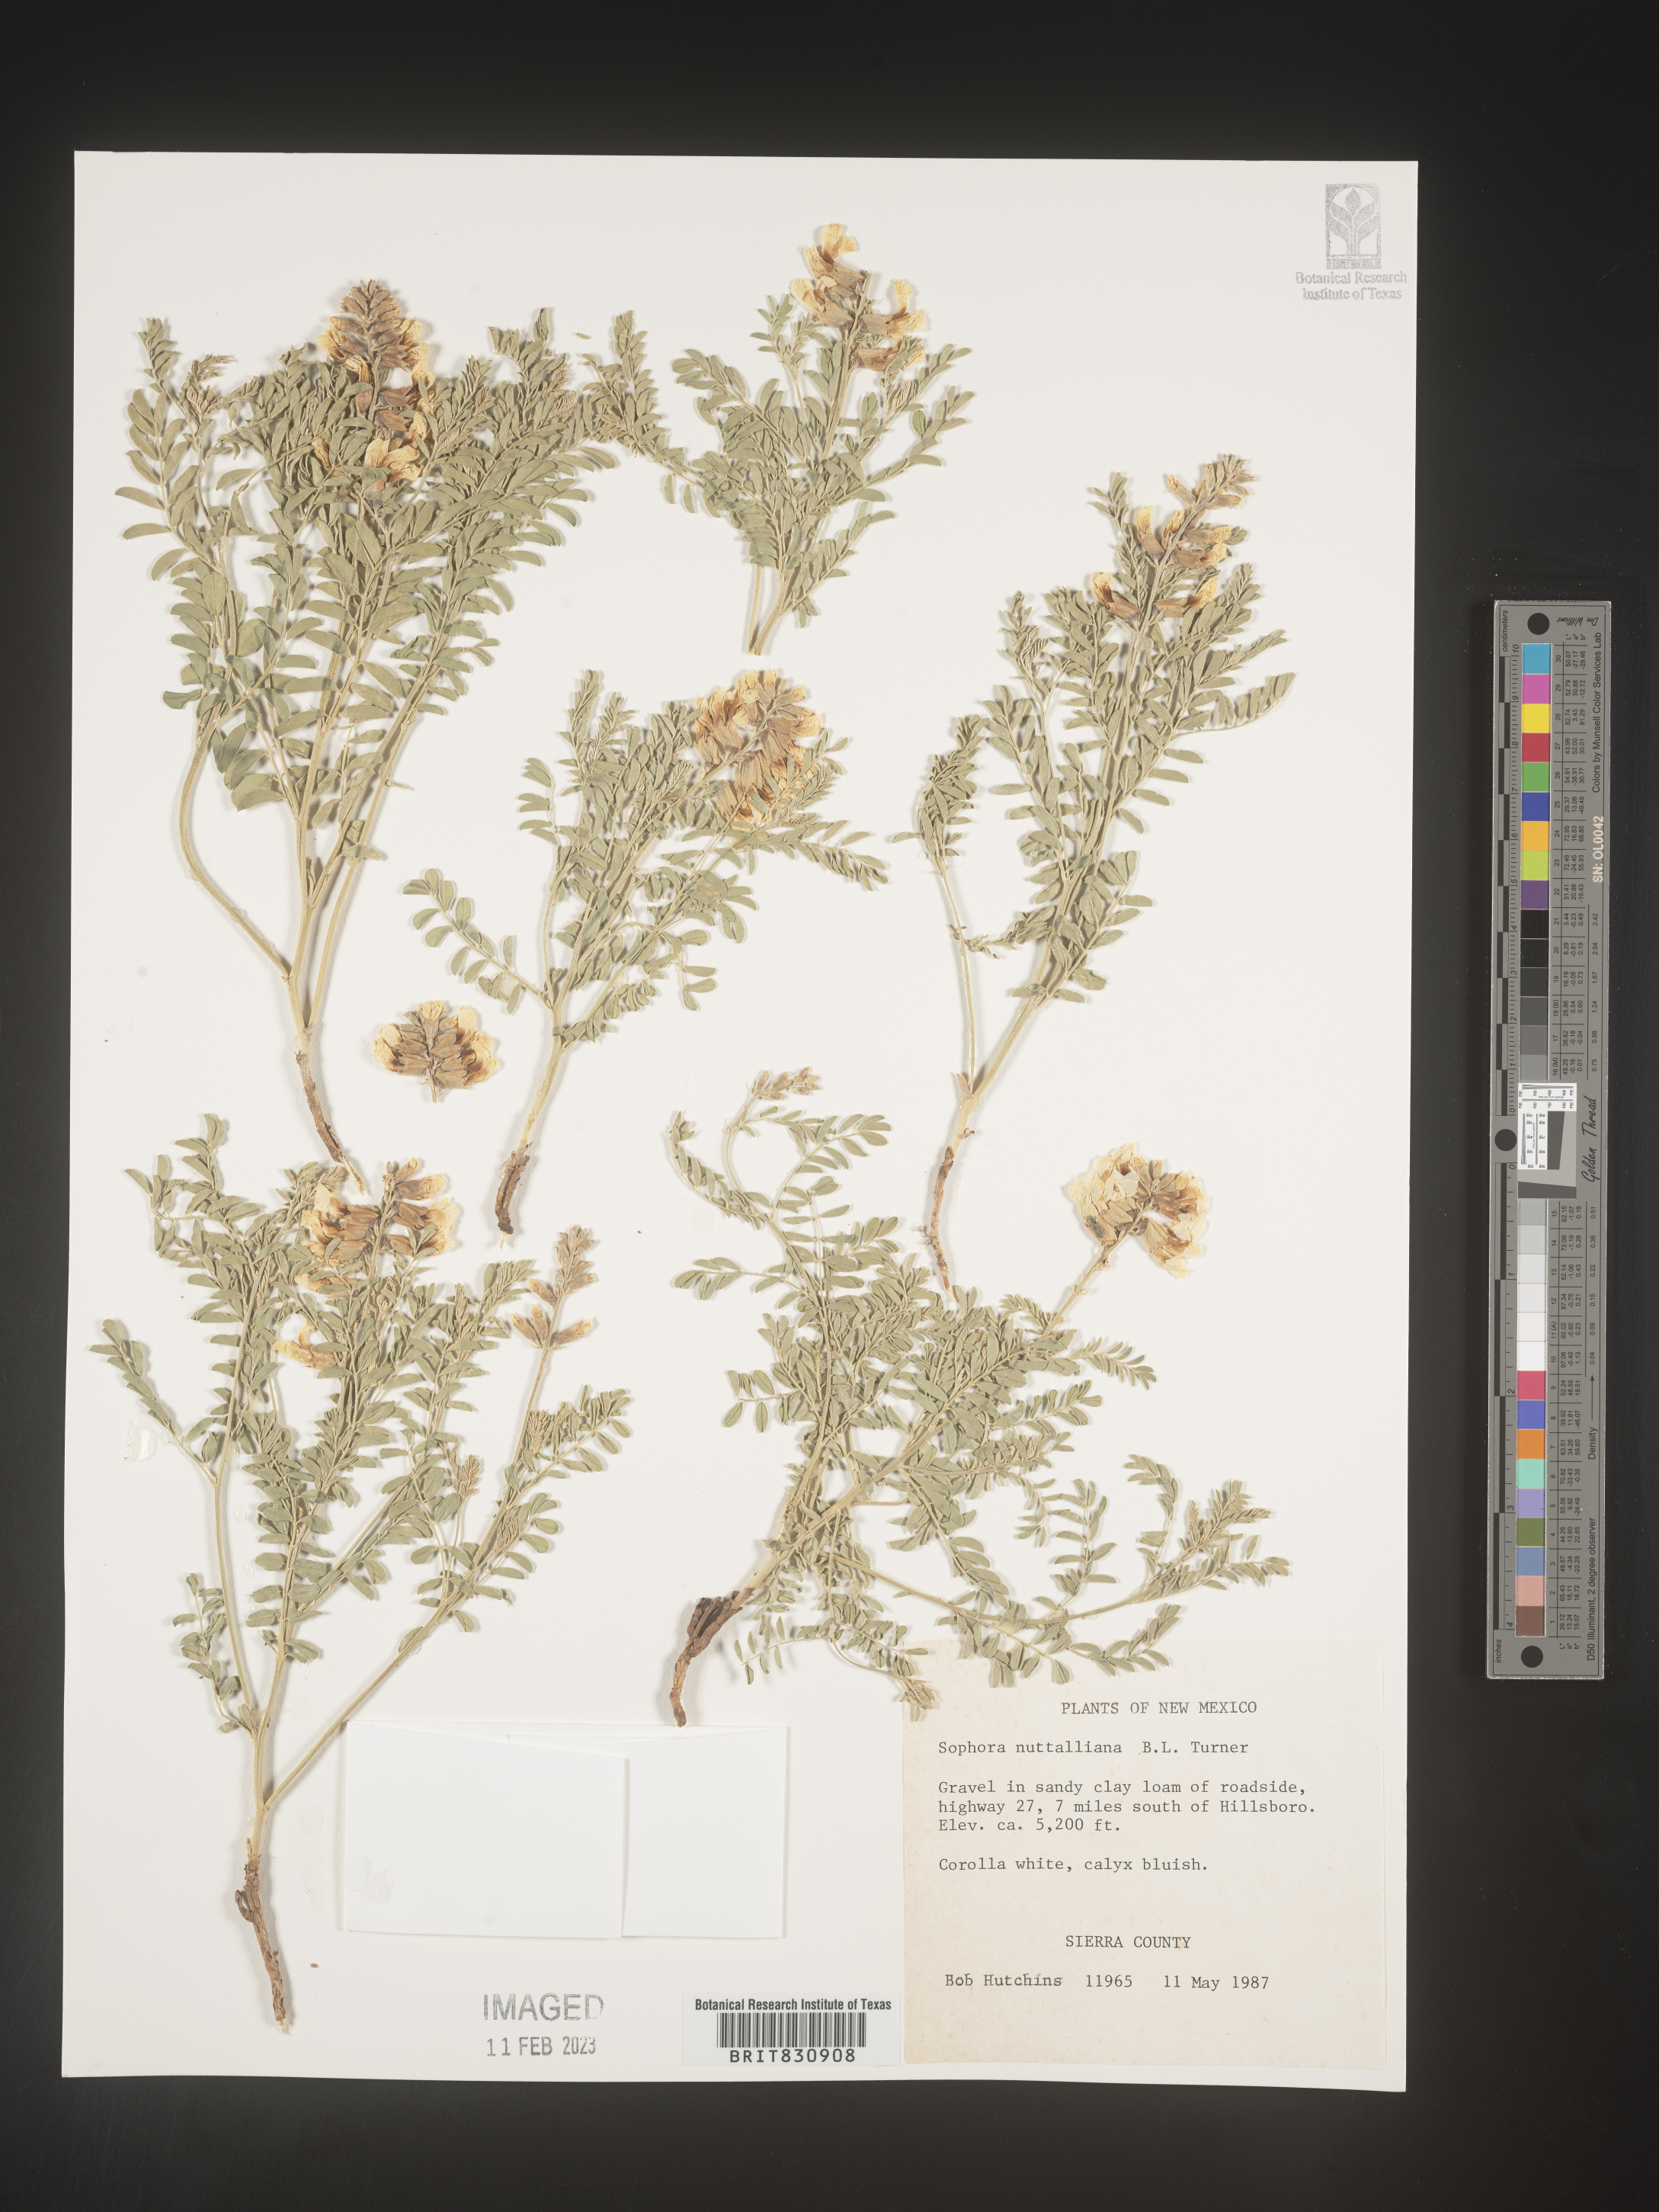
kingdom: Plantae
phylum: Tracheophyta
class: Magnoliopsida
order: Fabales
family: Fabaceae
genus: Sophora
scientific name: Sophora nuttalliana
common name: Silky sophora
